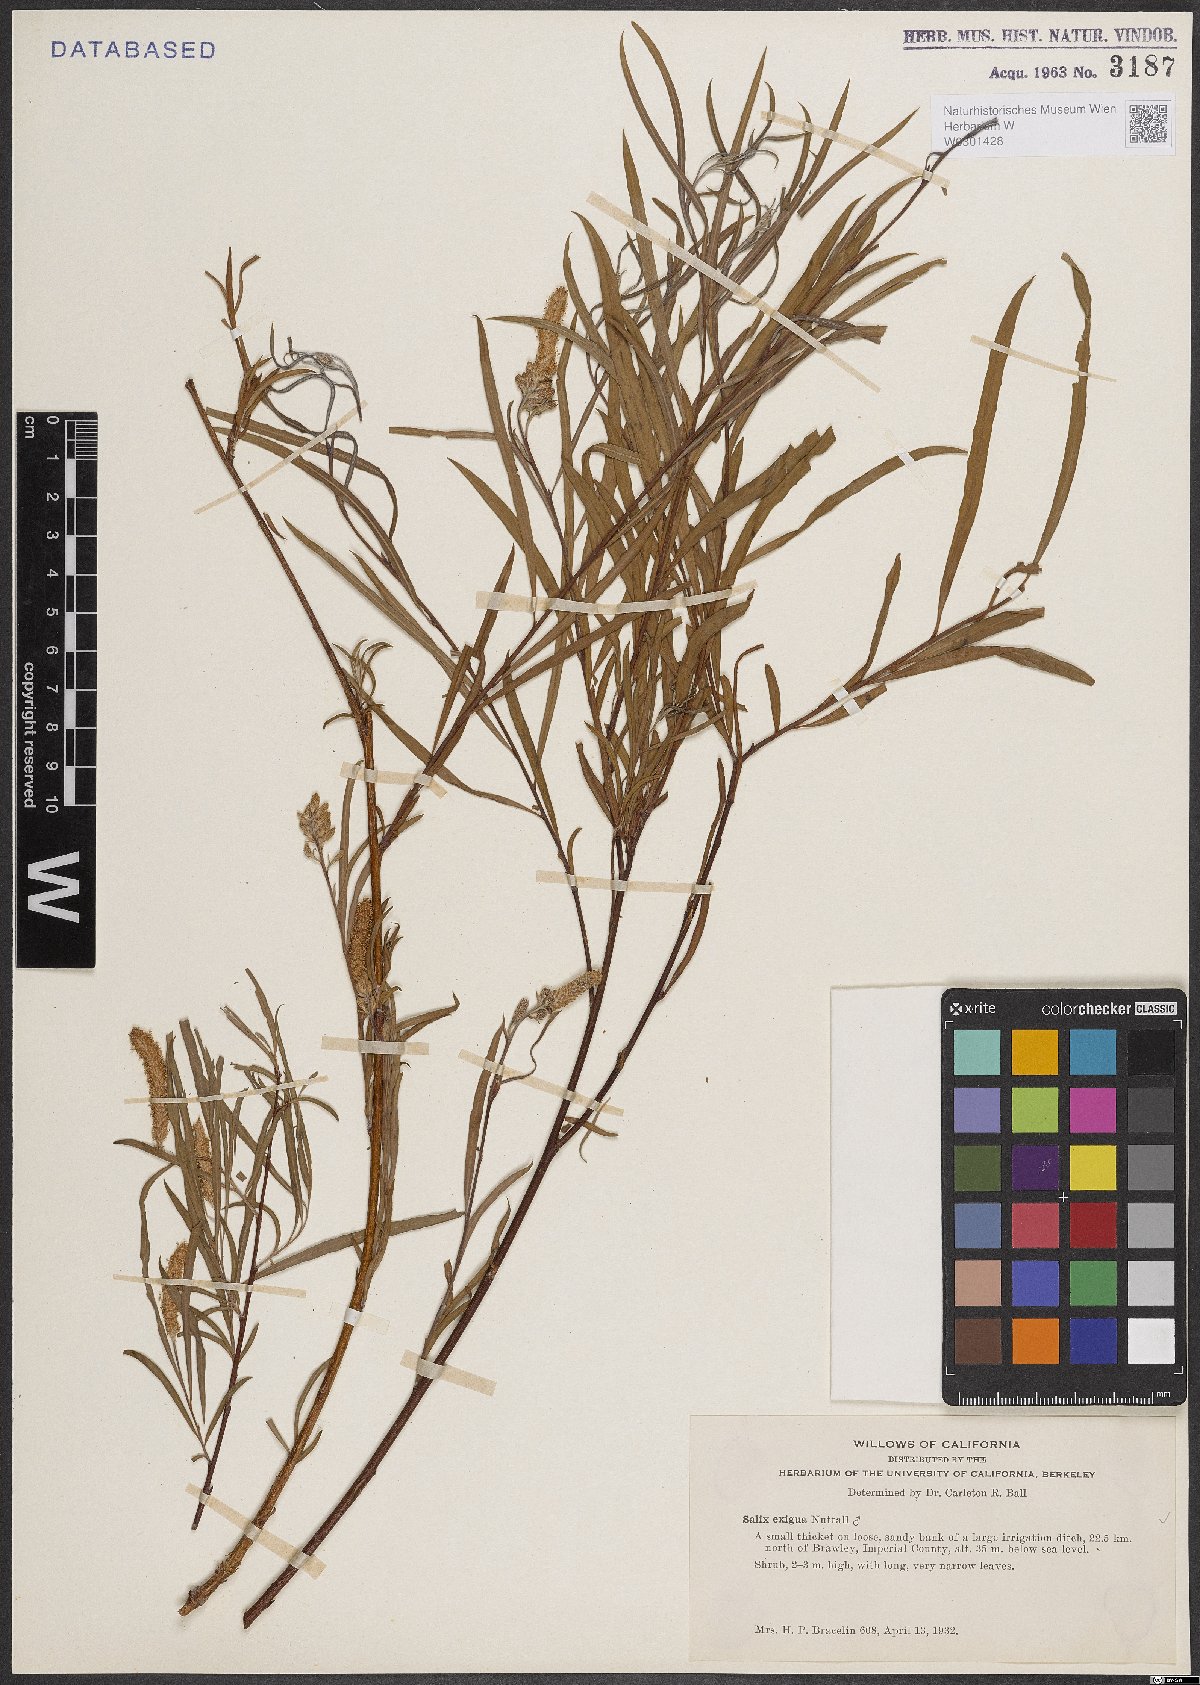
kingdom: Plantae
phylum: Tracheophyta
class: Magnoliopsida
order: Malpighiales
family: Salicaceae
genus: Salix
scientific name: Salix exigua
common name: Coyote willow
